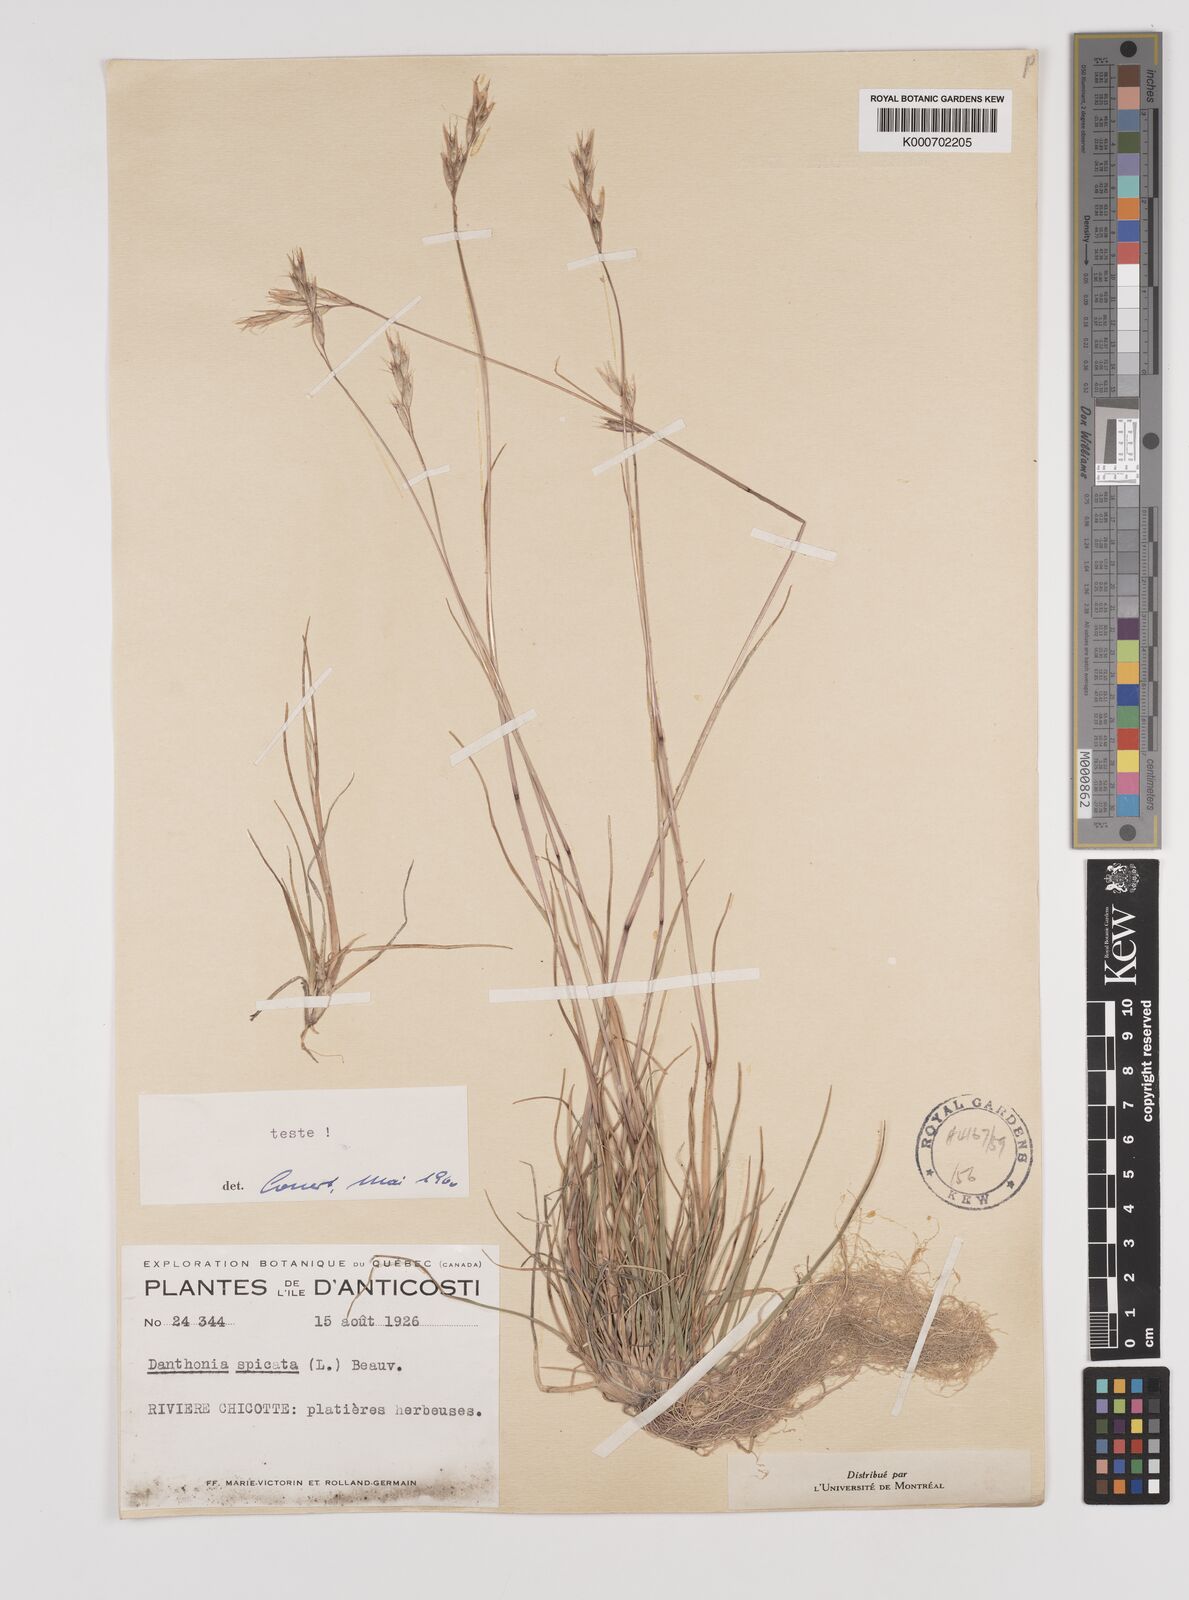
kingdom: Plantae
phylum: Tracheophyta
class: Liliopsida
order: Poales
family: Poaceae
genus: Danthonia
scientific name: Danthonia spicata
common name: Common wild oatgrass
